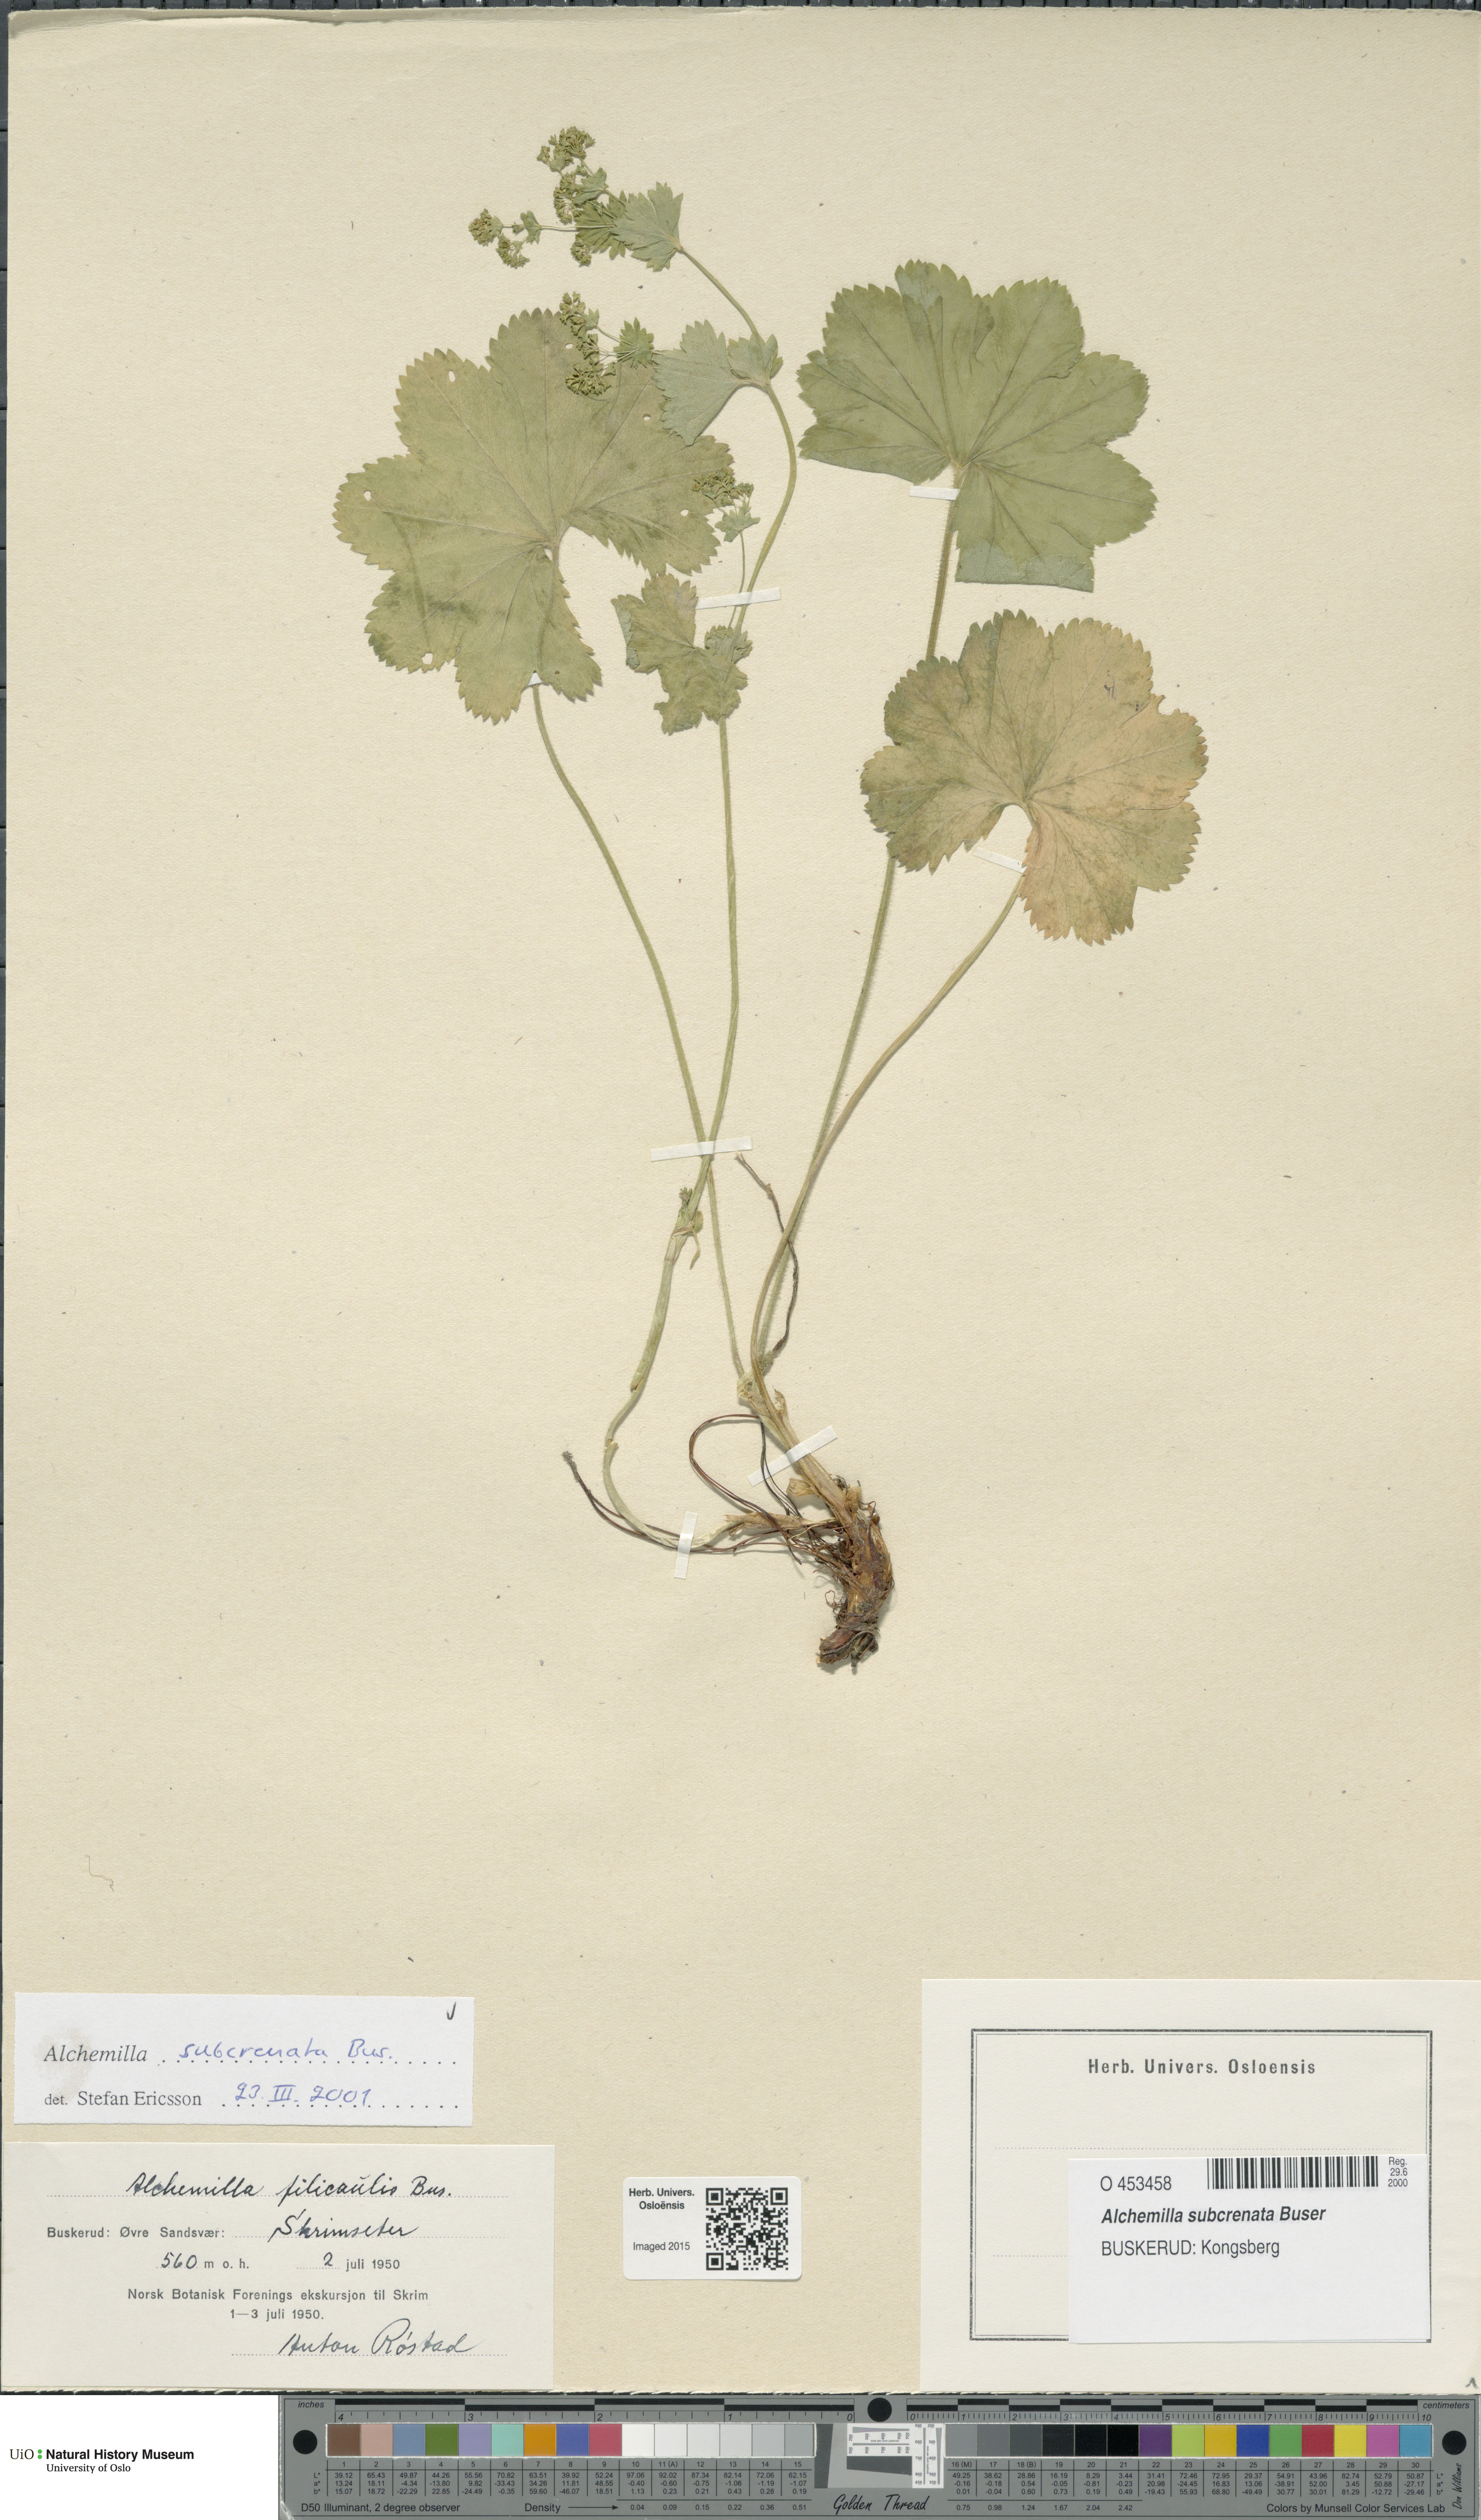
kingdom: Plantae
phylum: Tracheophyta
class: Magnoliopsida
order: Rosales
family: Rosaceae
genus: Alchemilla
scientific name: Alchemilla subcrenata
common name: Broadtooth lady's mantle
